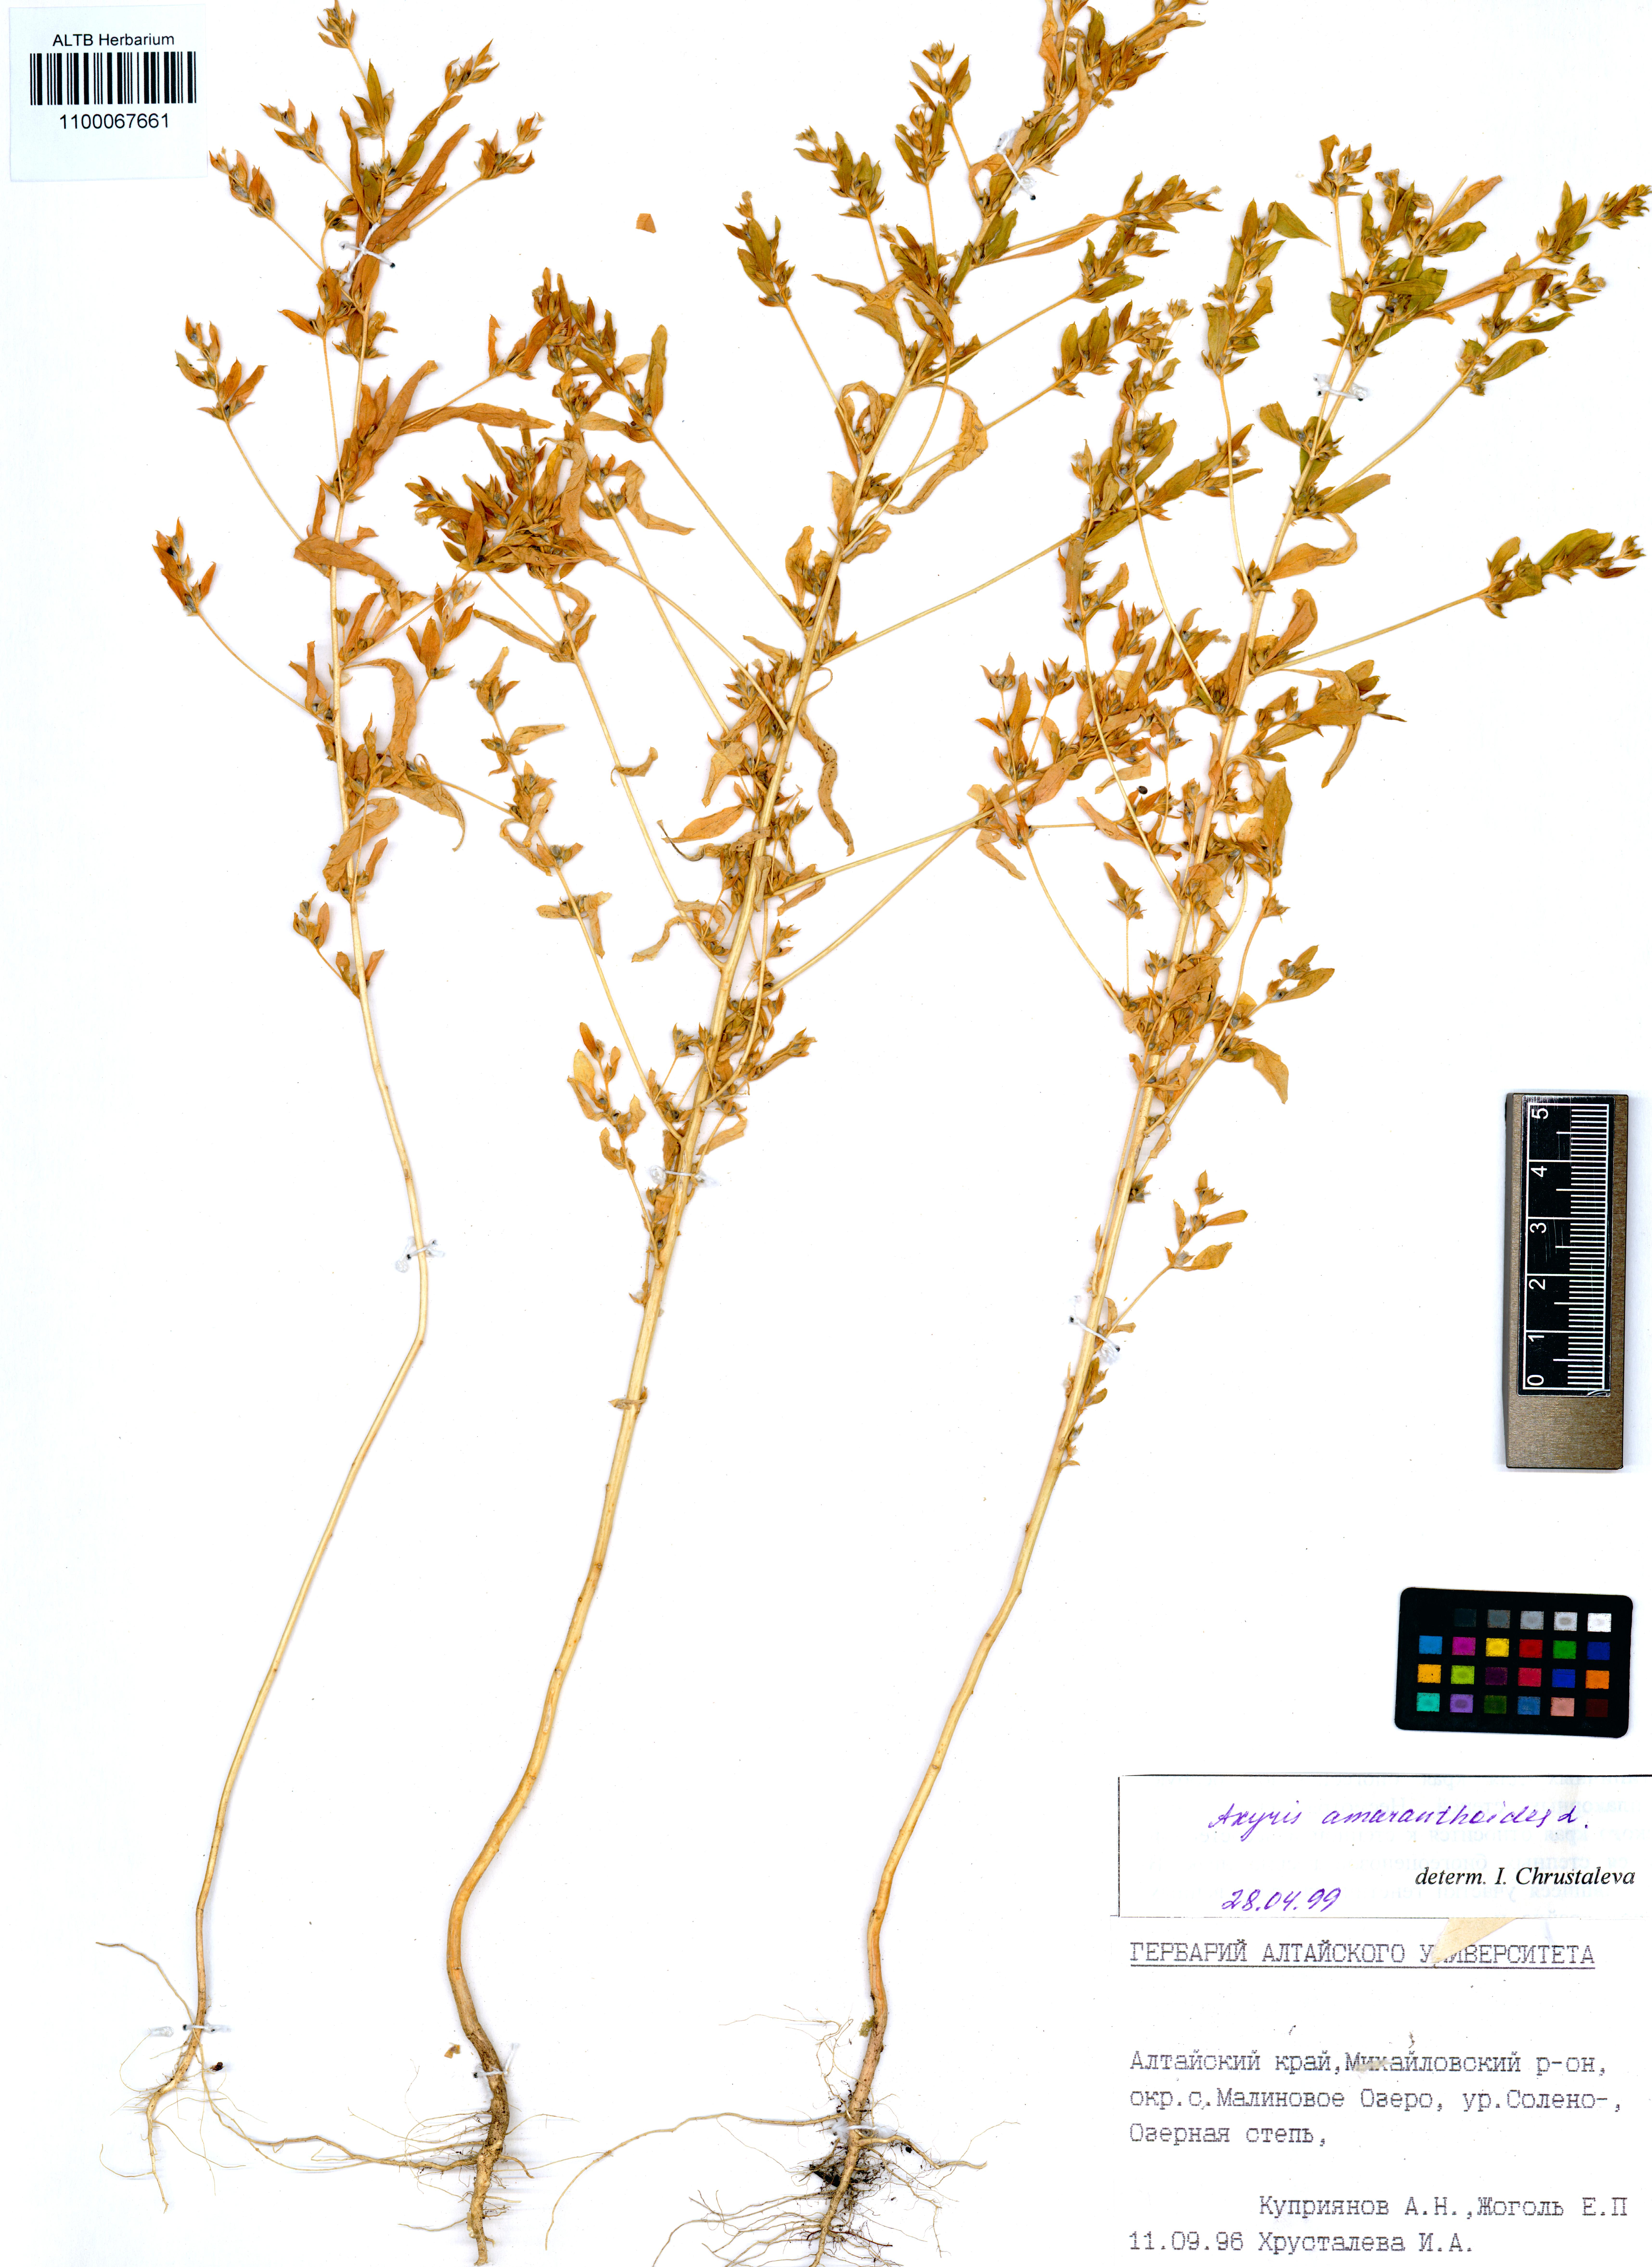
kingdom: Plantae
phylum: Tracheophyta
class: Magnoliopsida
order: Caryophyllales
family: Amaranthaceae
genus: Axyris
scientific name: Axyris amaranthoides
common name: Russian pigweed
